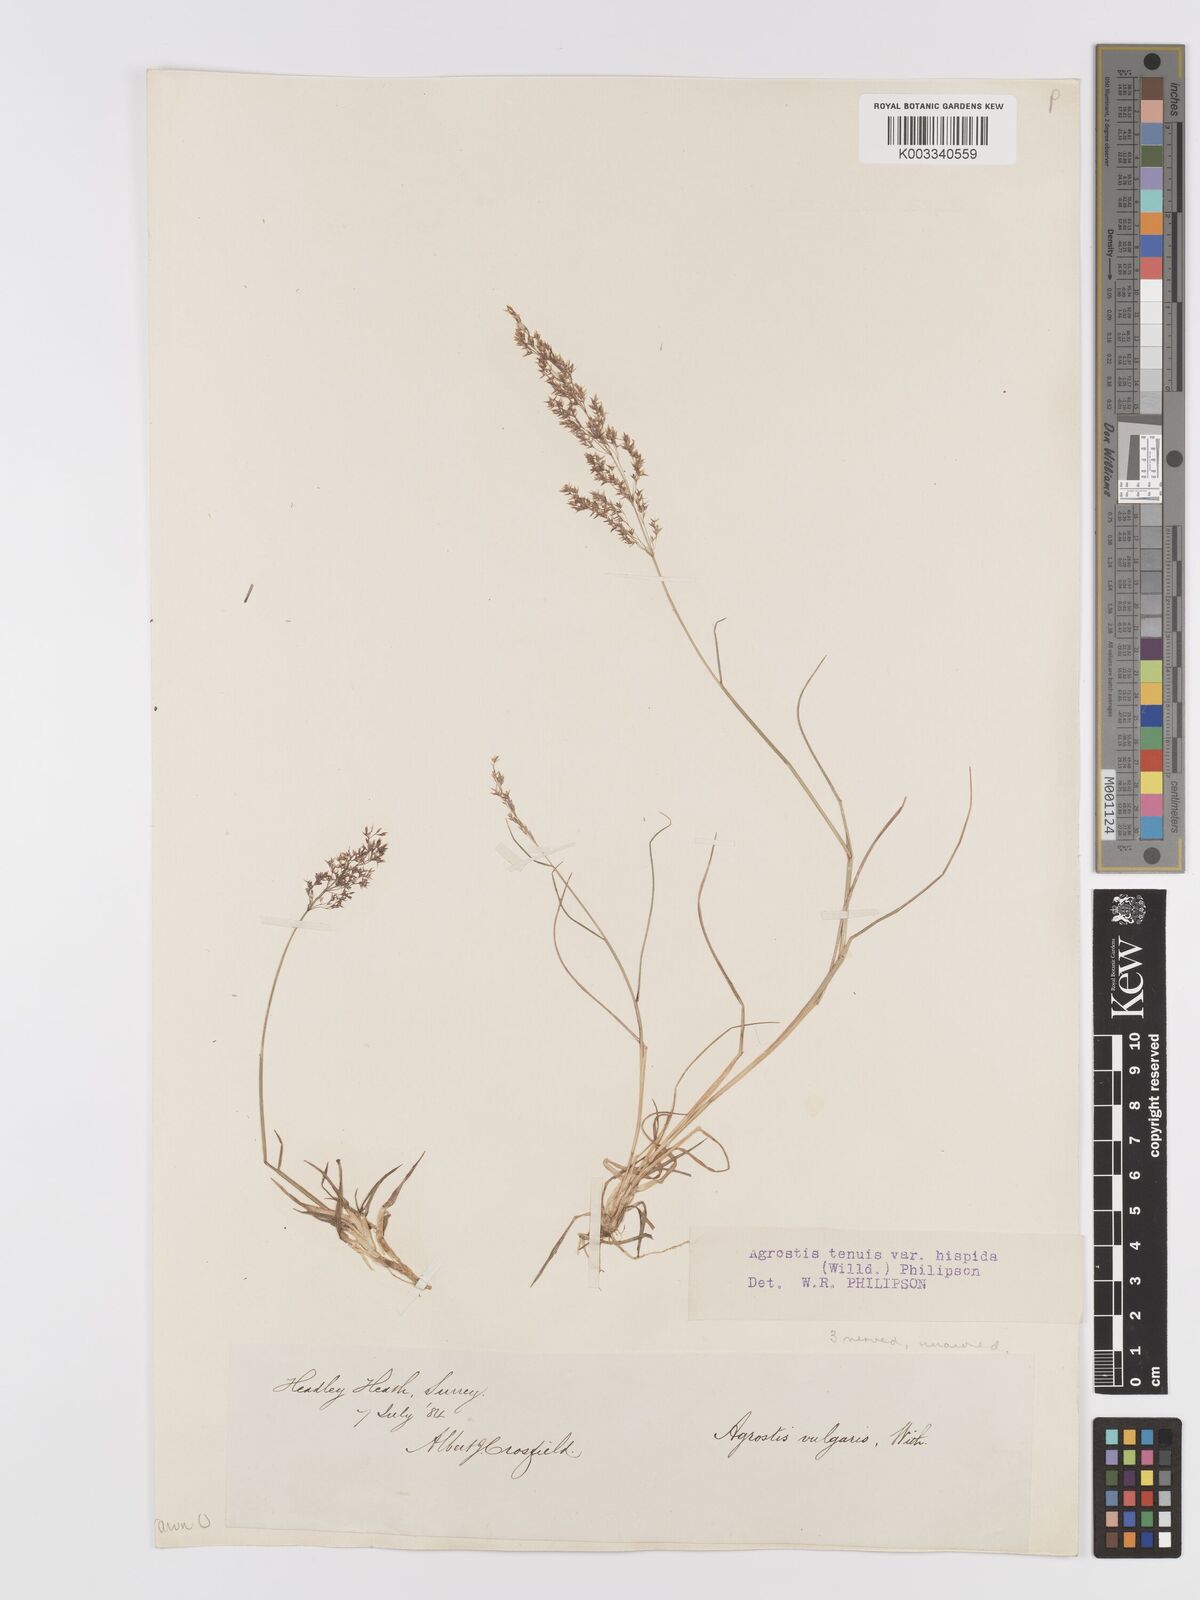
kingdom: Plantae
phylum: Tracheophyta
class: Liliopsida
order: Poales
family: Poaceae
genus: Agrostis
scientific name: Agrostis capillaris
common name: Colonial bentgrass
